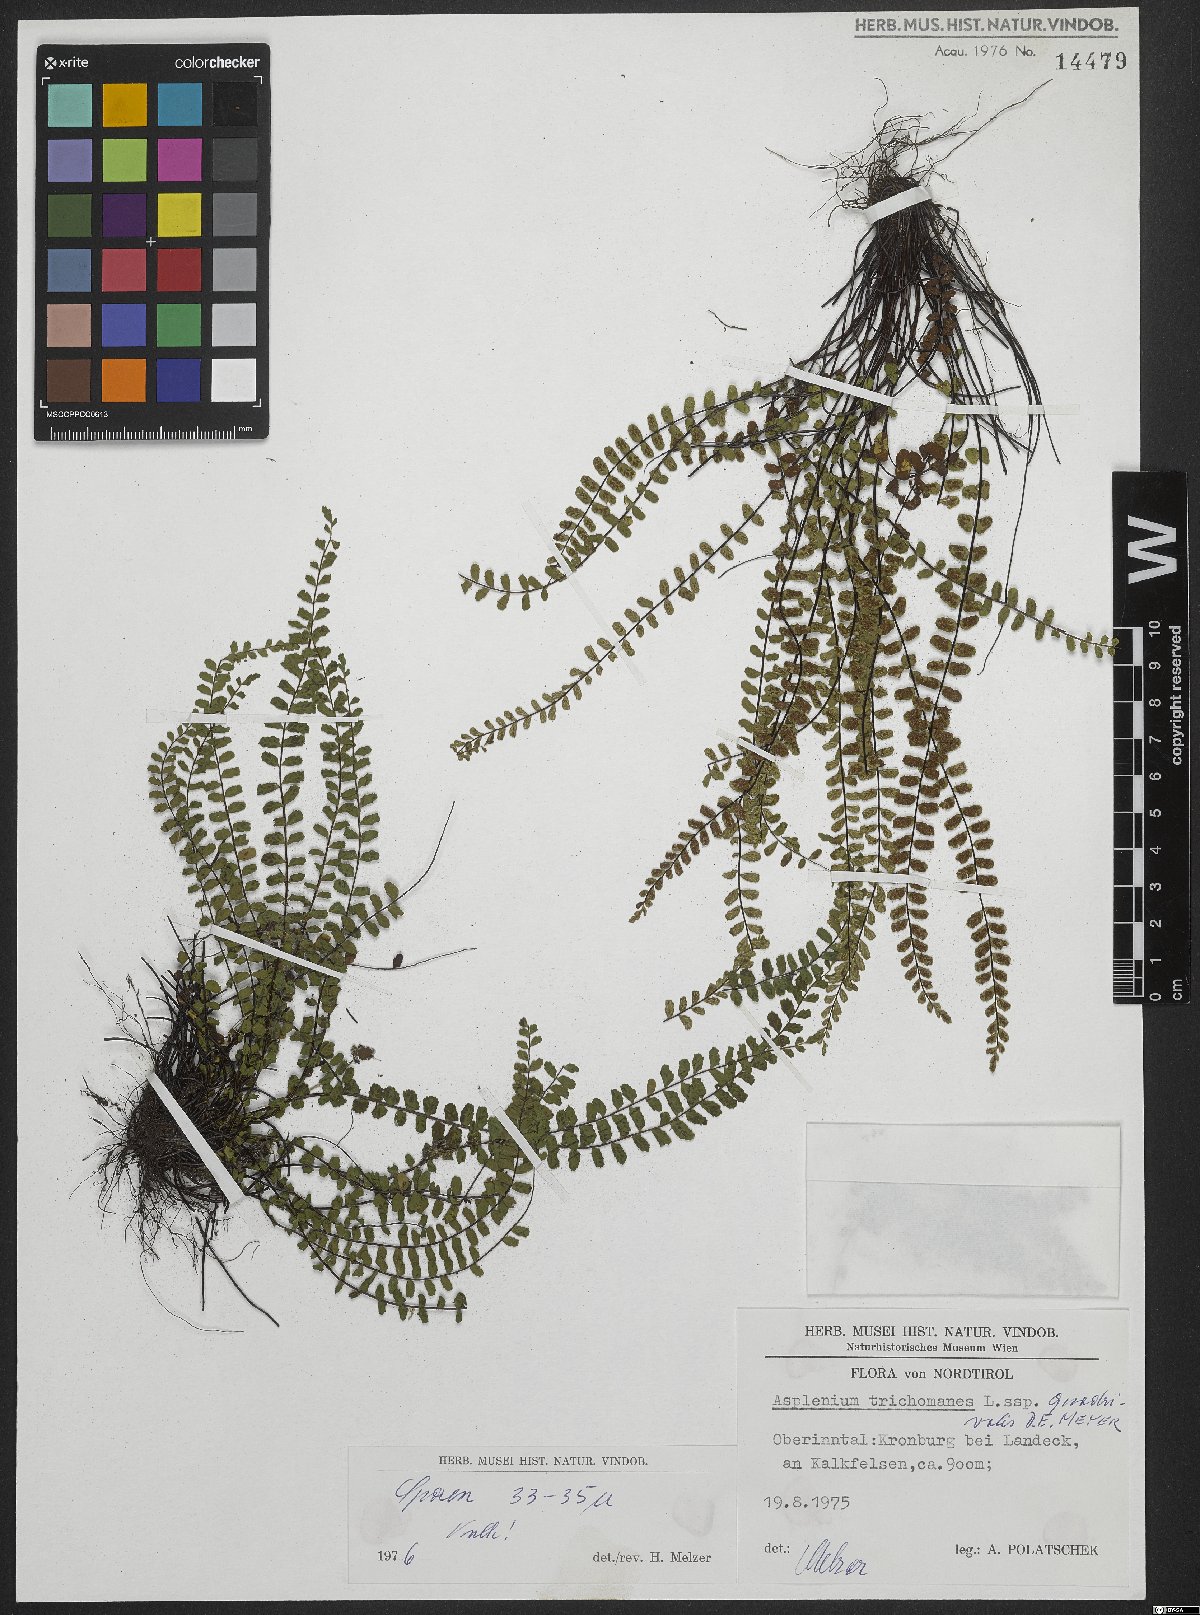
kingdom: Plantae
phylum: Tracheophyta
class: Polypodiopsida
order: Polypodiales
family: Aspleniaceae
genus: Asplenium
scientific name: Asplenium quadrivalens
